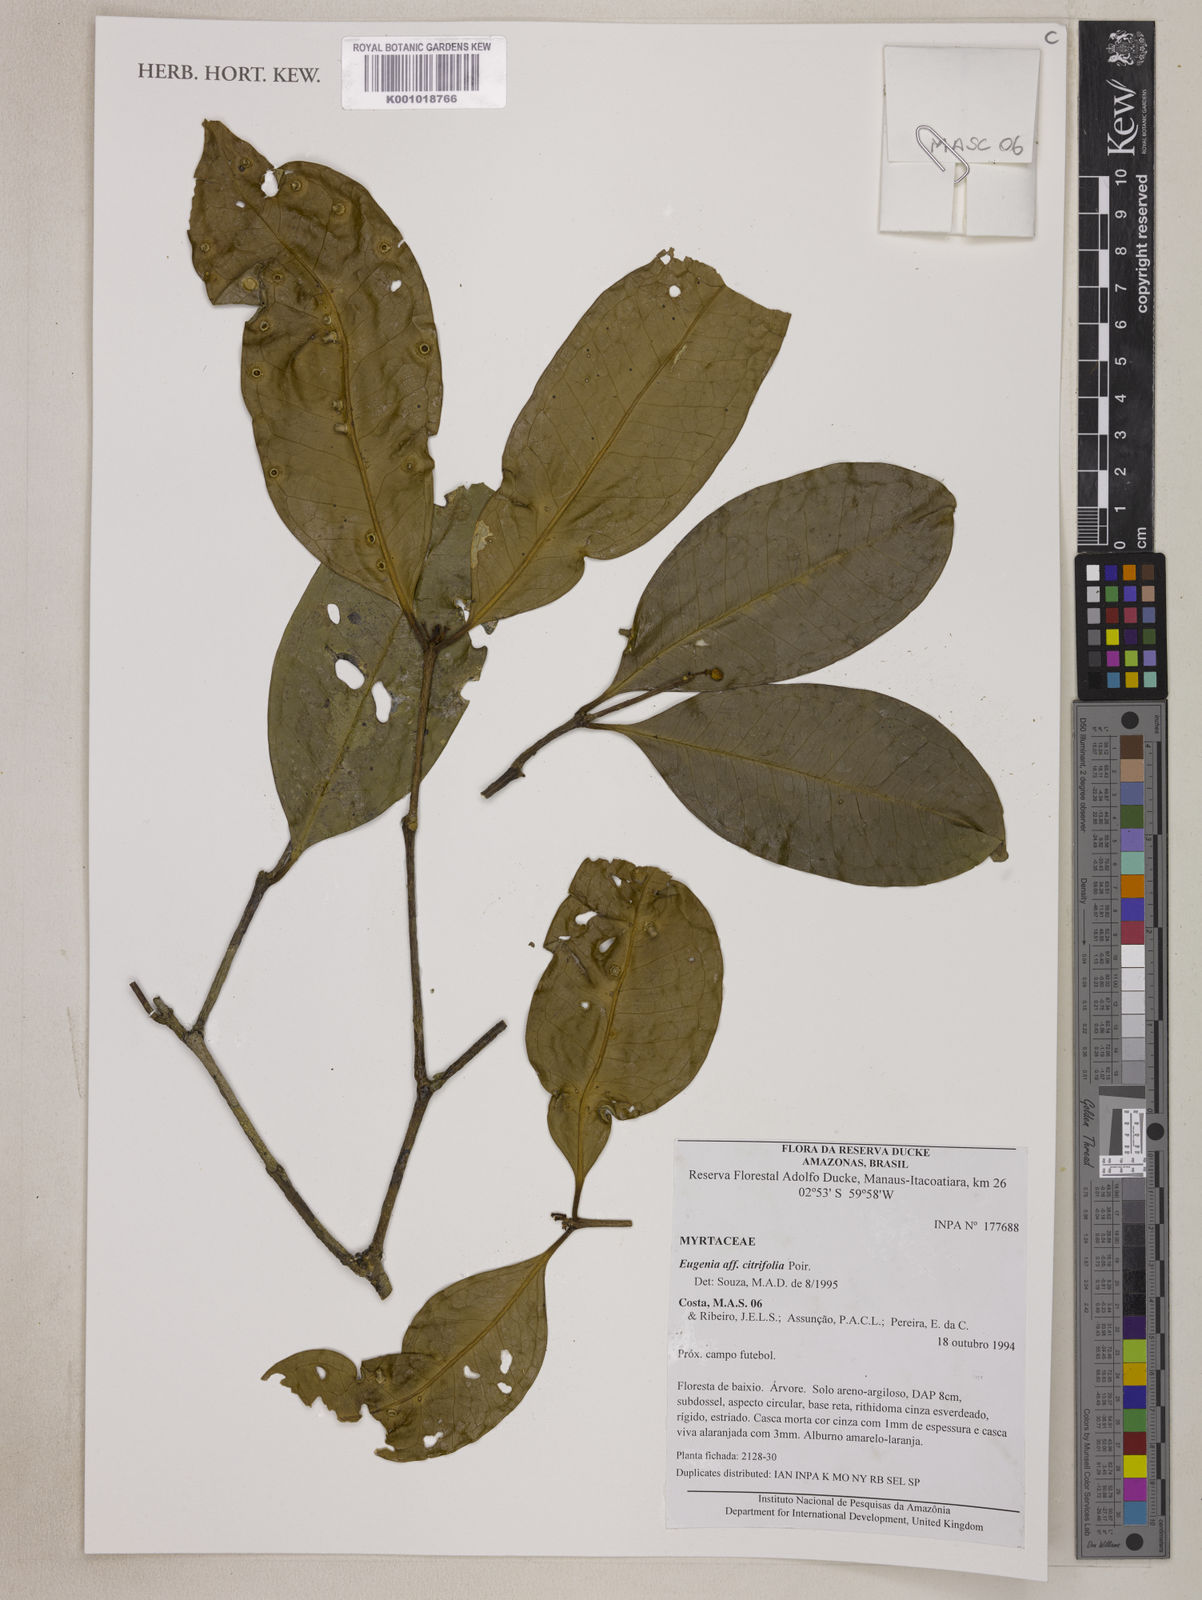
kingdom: Plantae
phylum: Tracheophyta
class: Magnoliopsida
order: Myrtales
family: Myrtaceae
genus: Eugenia
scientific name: Eugenia citrifolia
